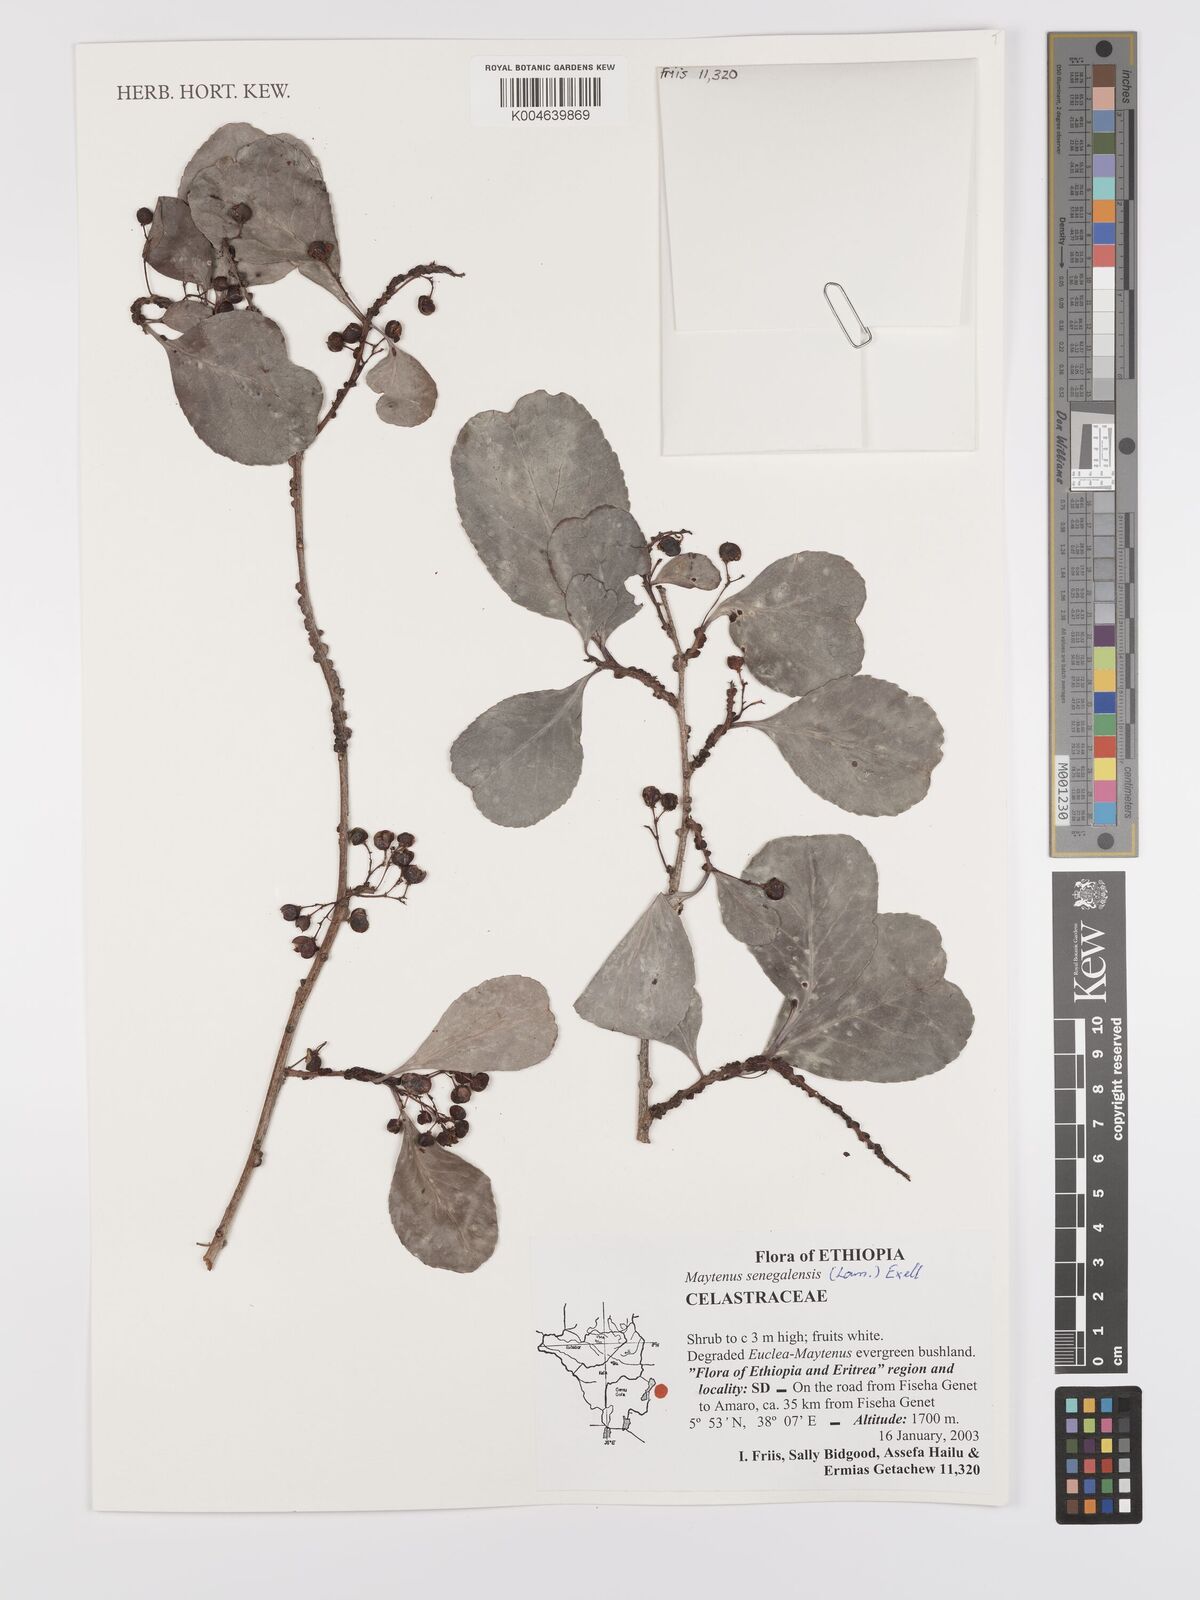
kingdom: Plantae
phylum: Tracheophyta
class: Magnoliopsida
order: Celastrales
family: Celastraceae
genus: Gymnosporia
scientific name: Gymnosporia senegalensis
